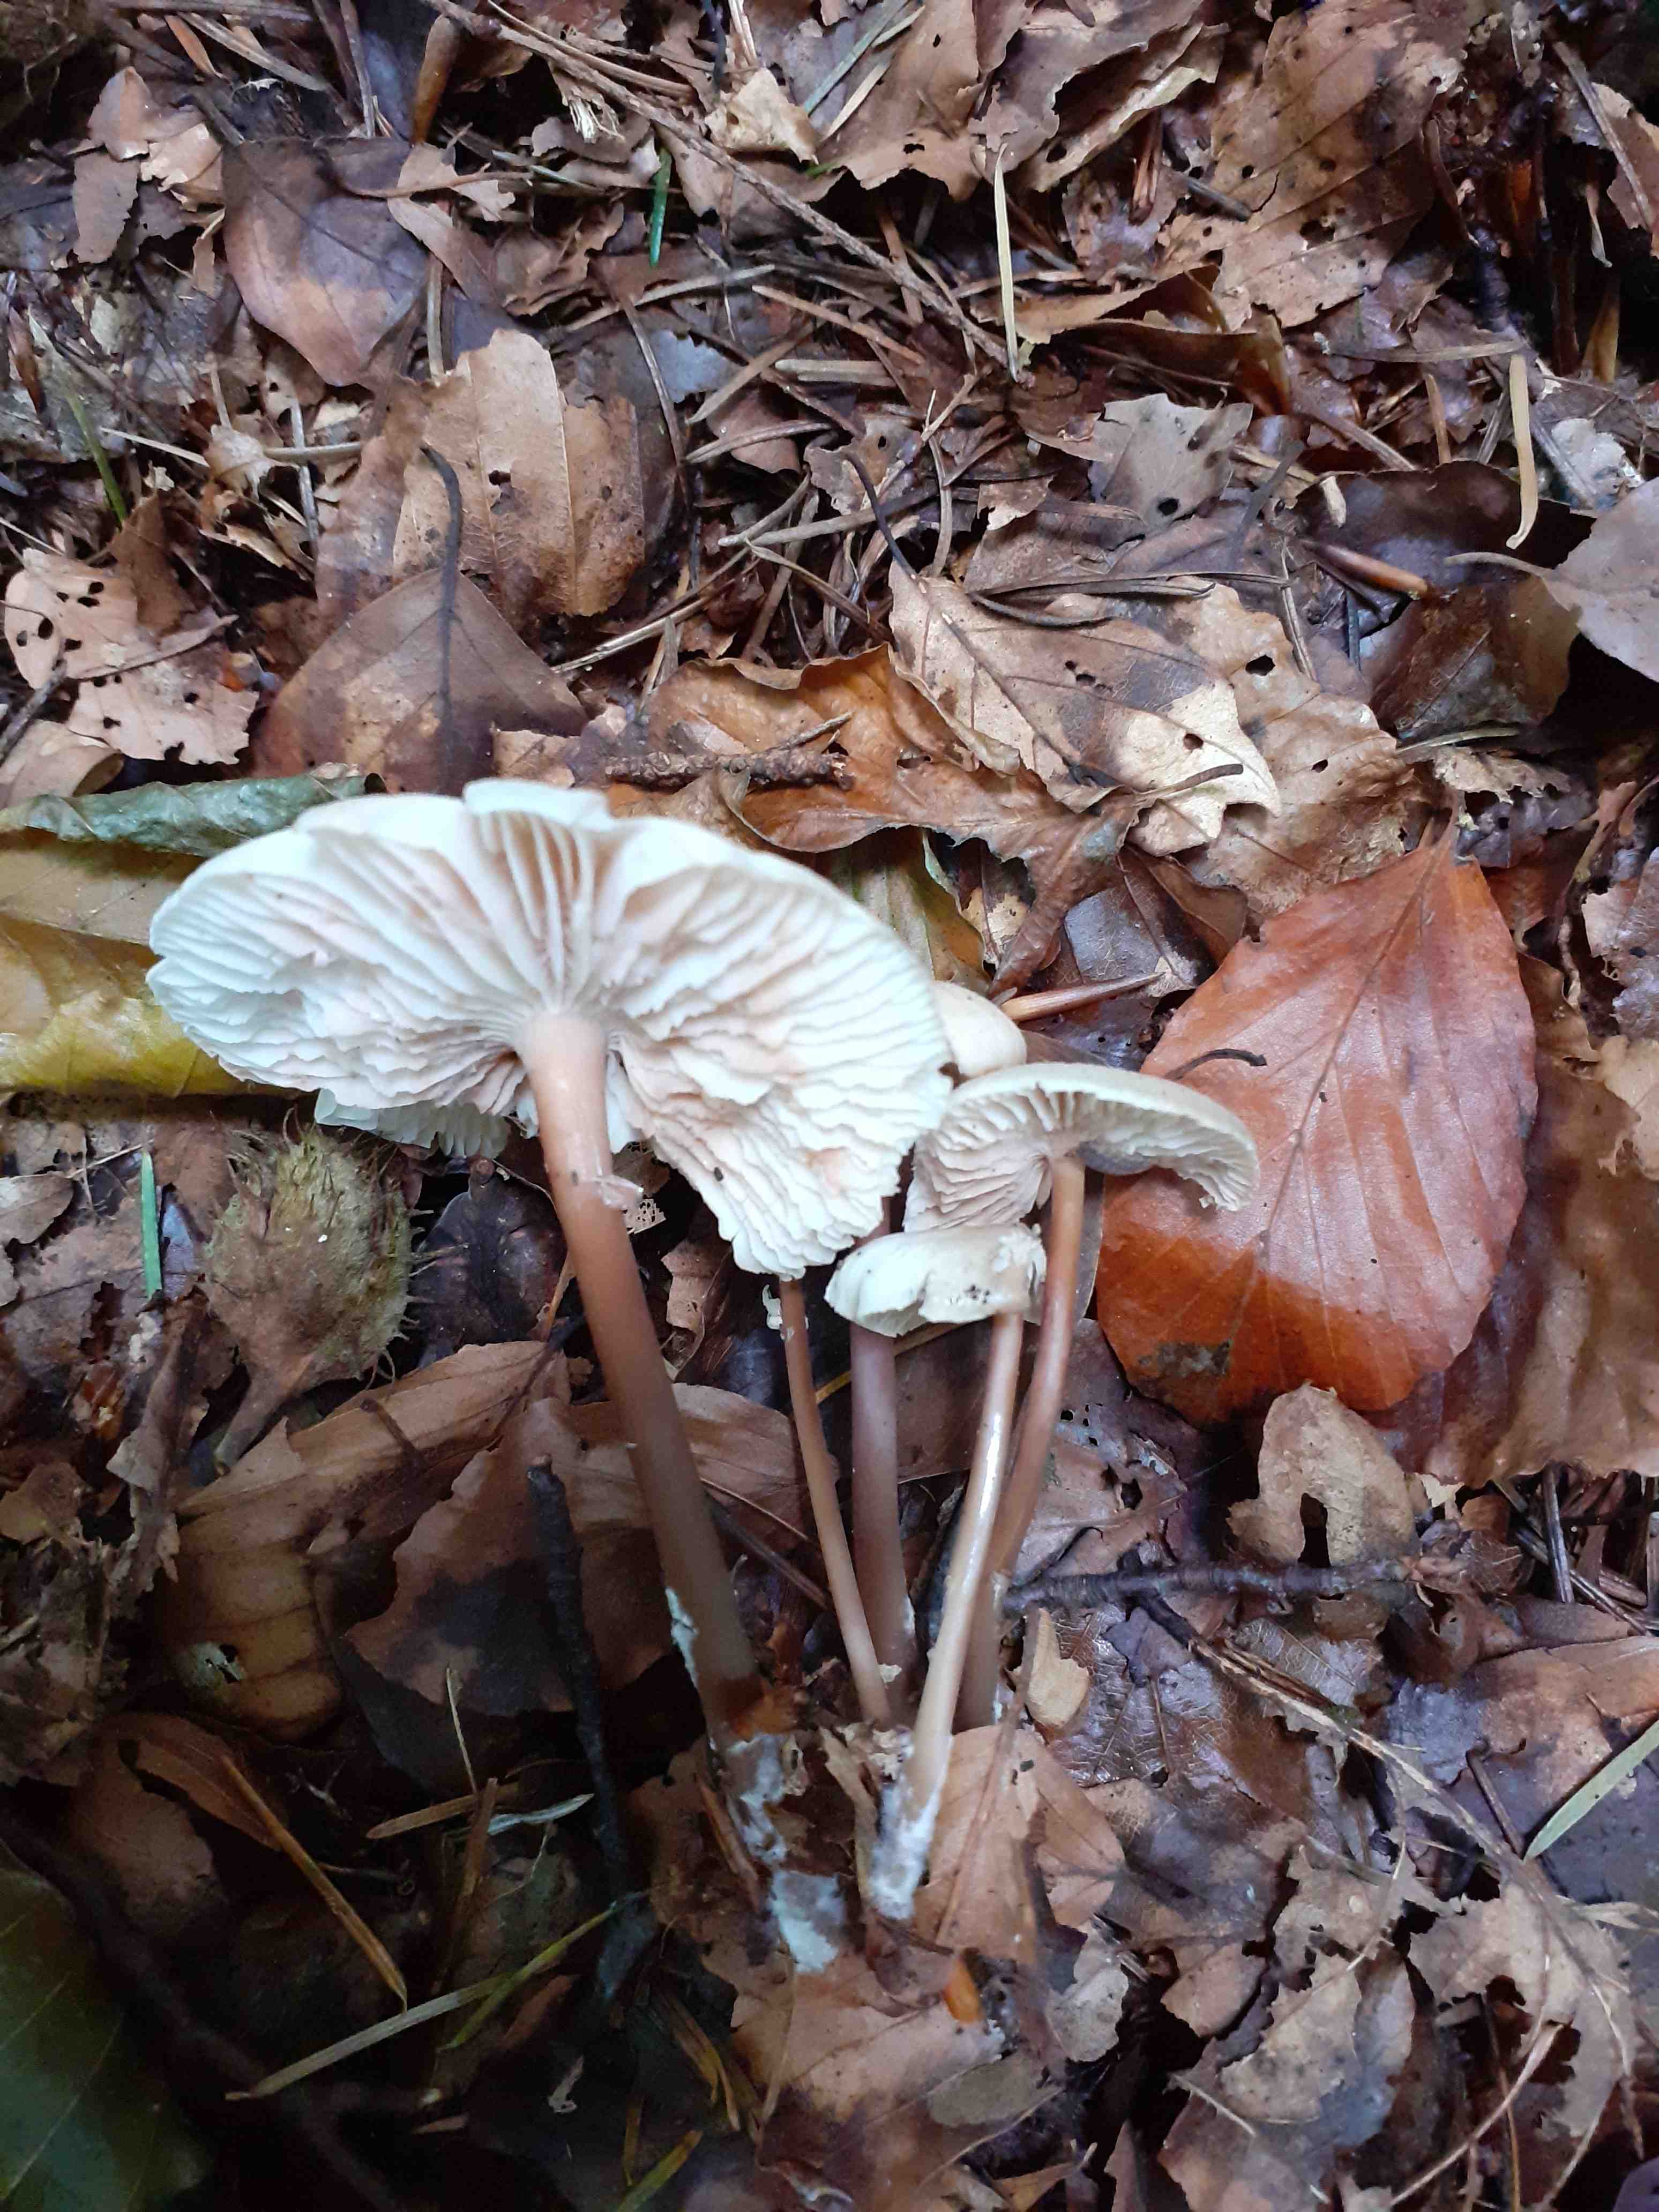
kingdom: Fungi
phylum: Basidiomycota
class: Agaricomycetes
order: Agaricales
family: Marasmiaceae
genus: Marasmius
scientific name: Marasmius wynneae
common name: hvælvet bruskhat
